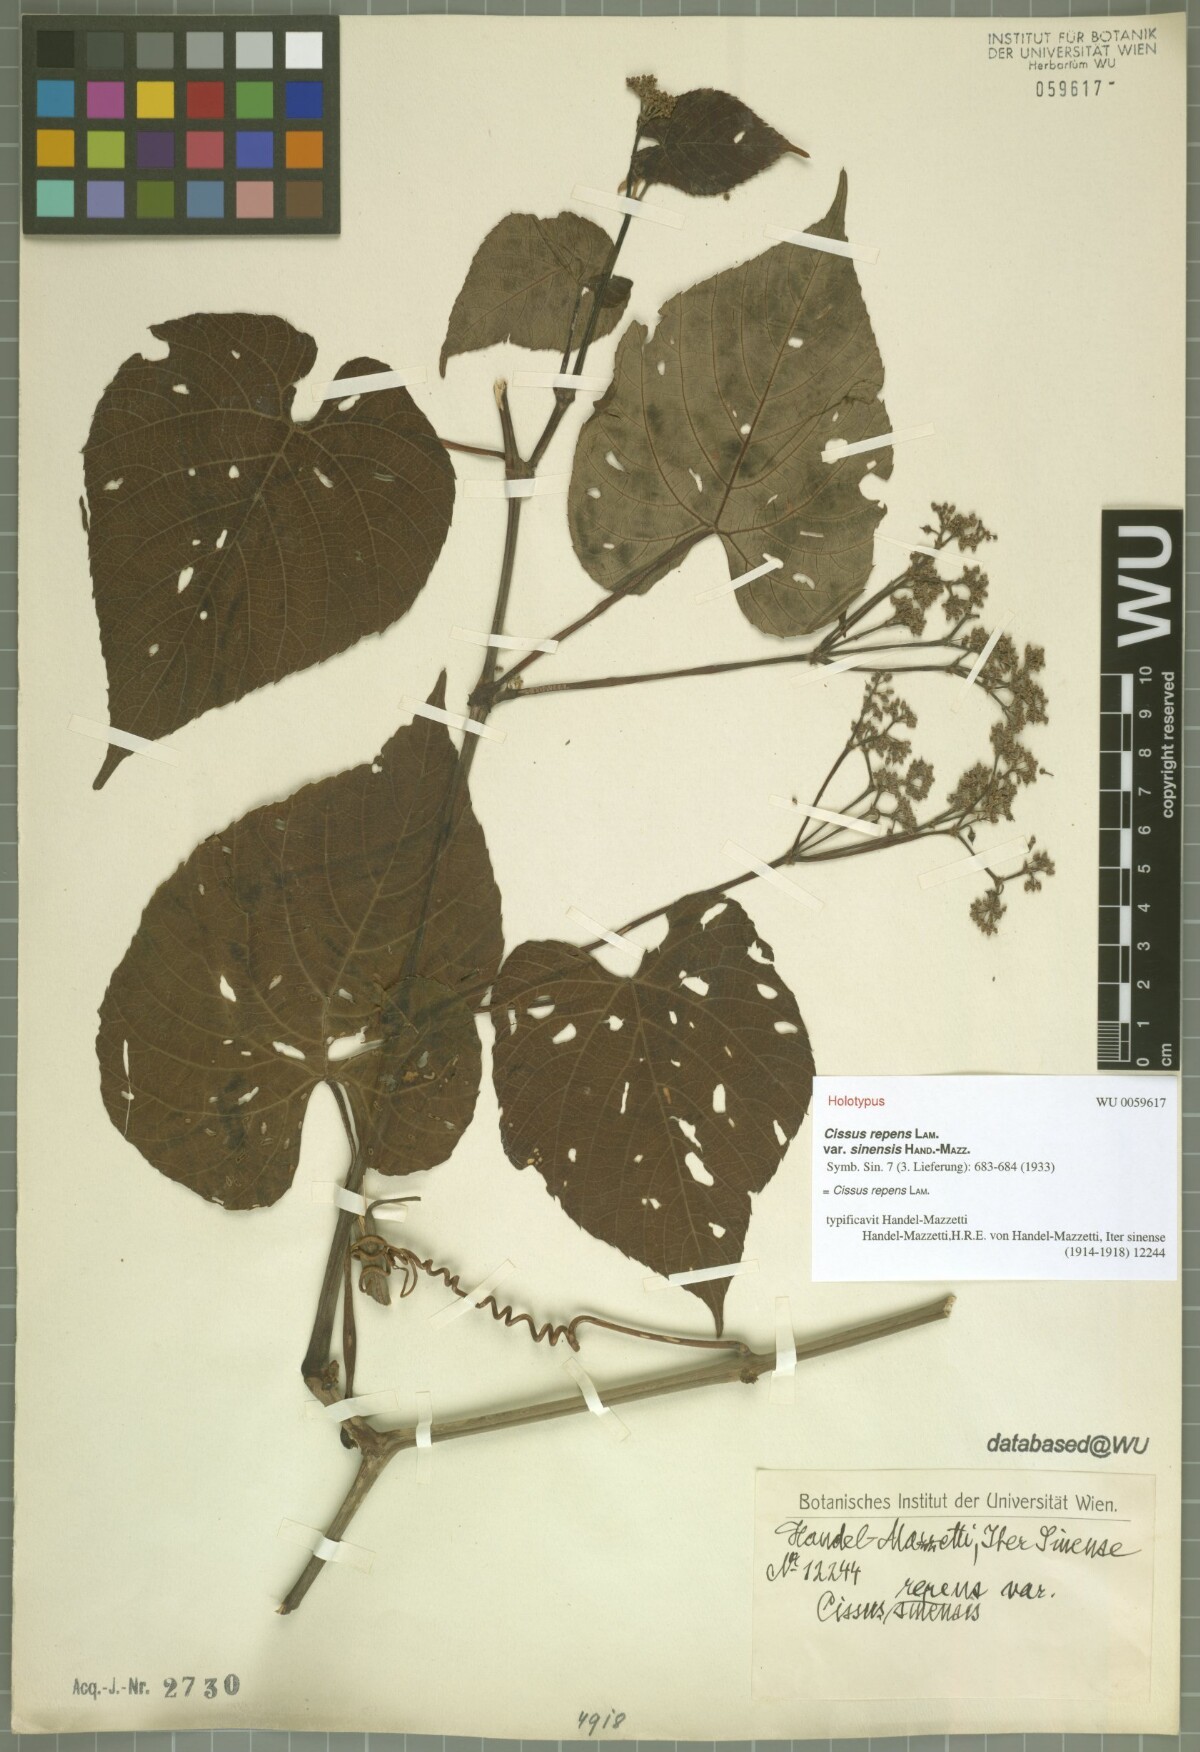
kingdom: Plantae
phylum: Tracheophyta
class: Magnoliopsida
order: Vitales
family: Vitaceae
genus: Cissus
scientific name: Cissus repens
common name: Cissus
